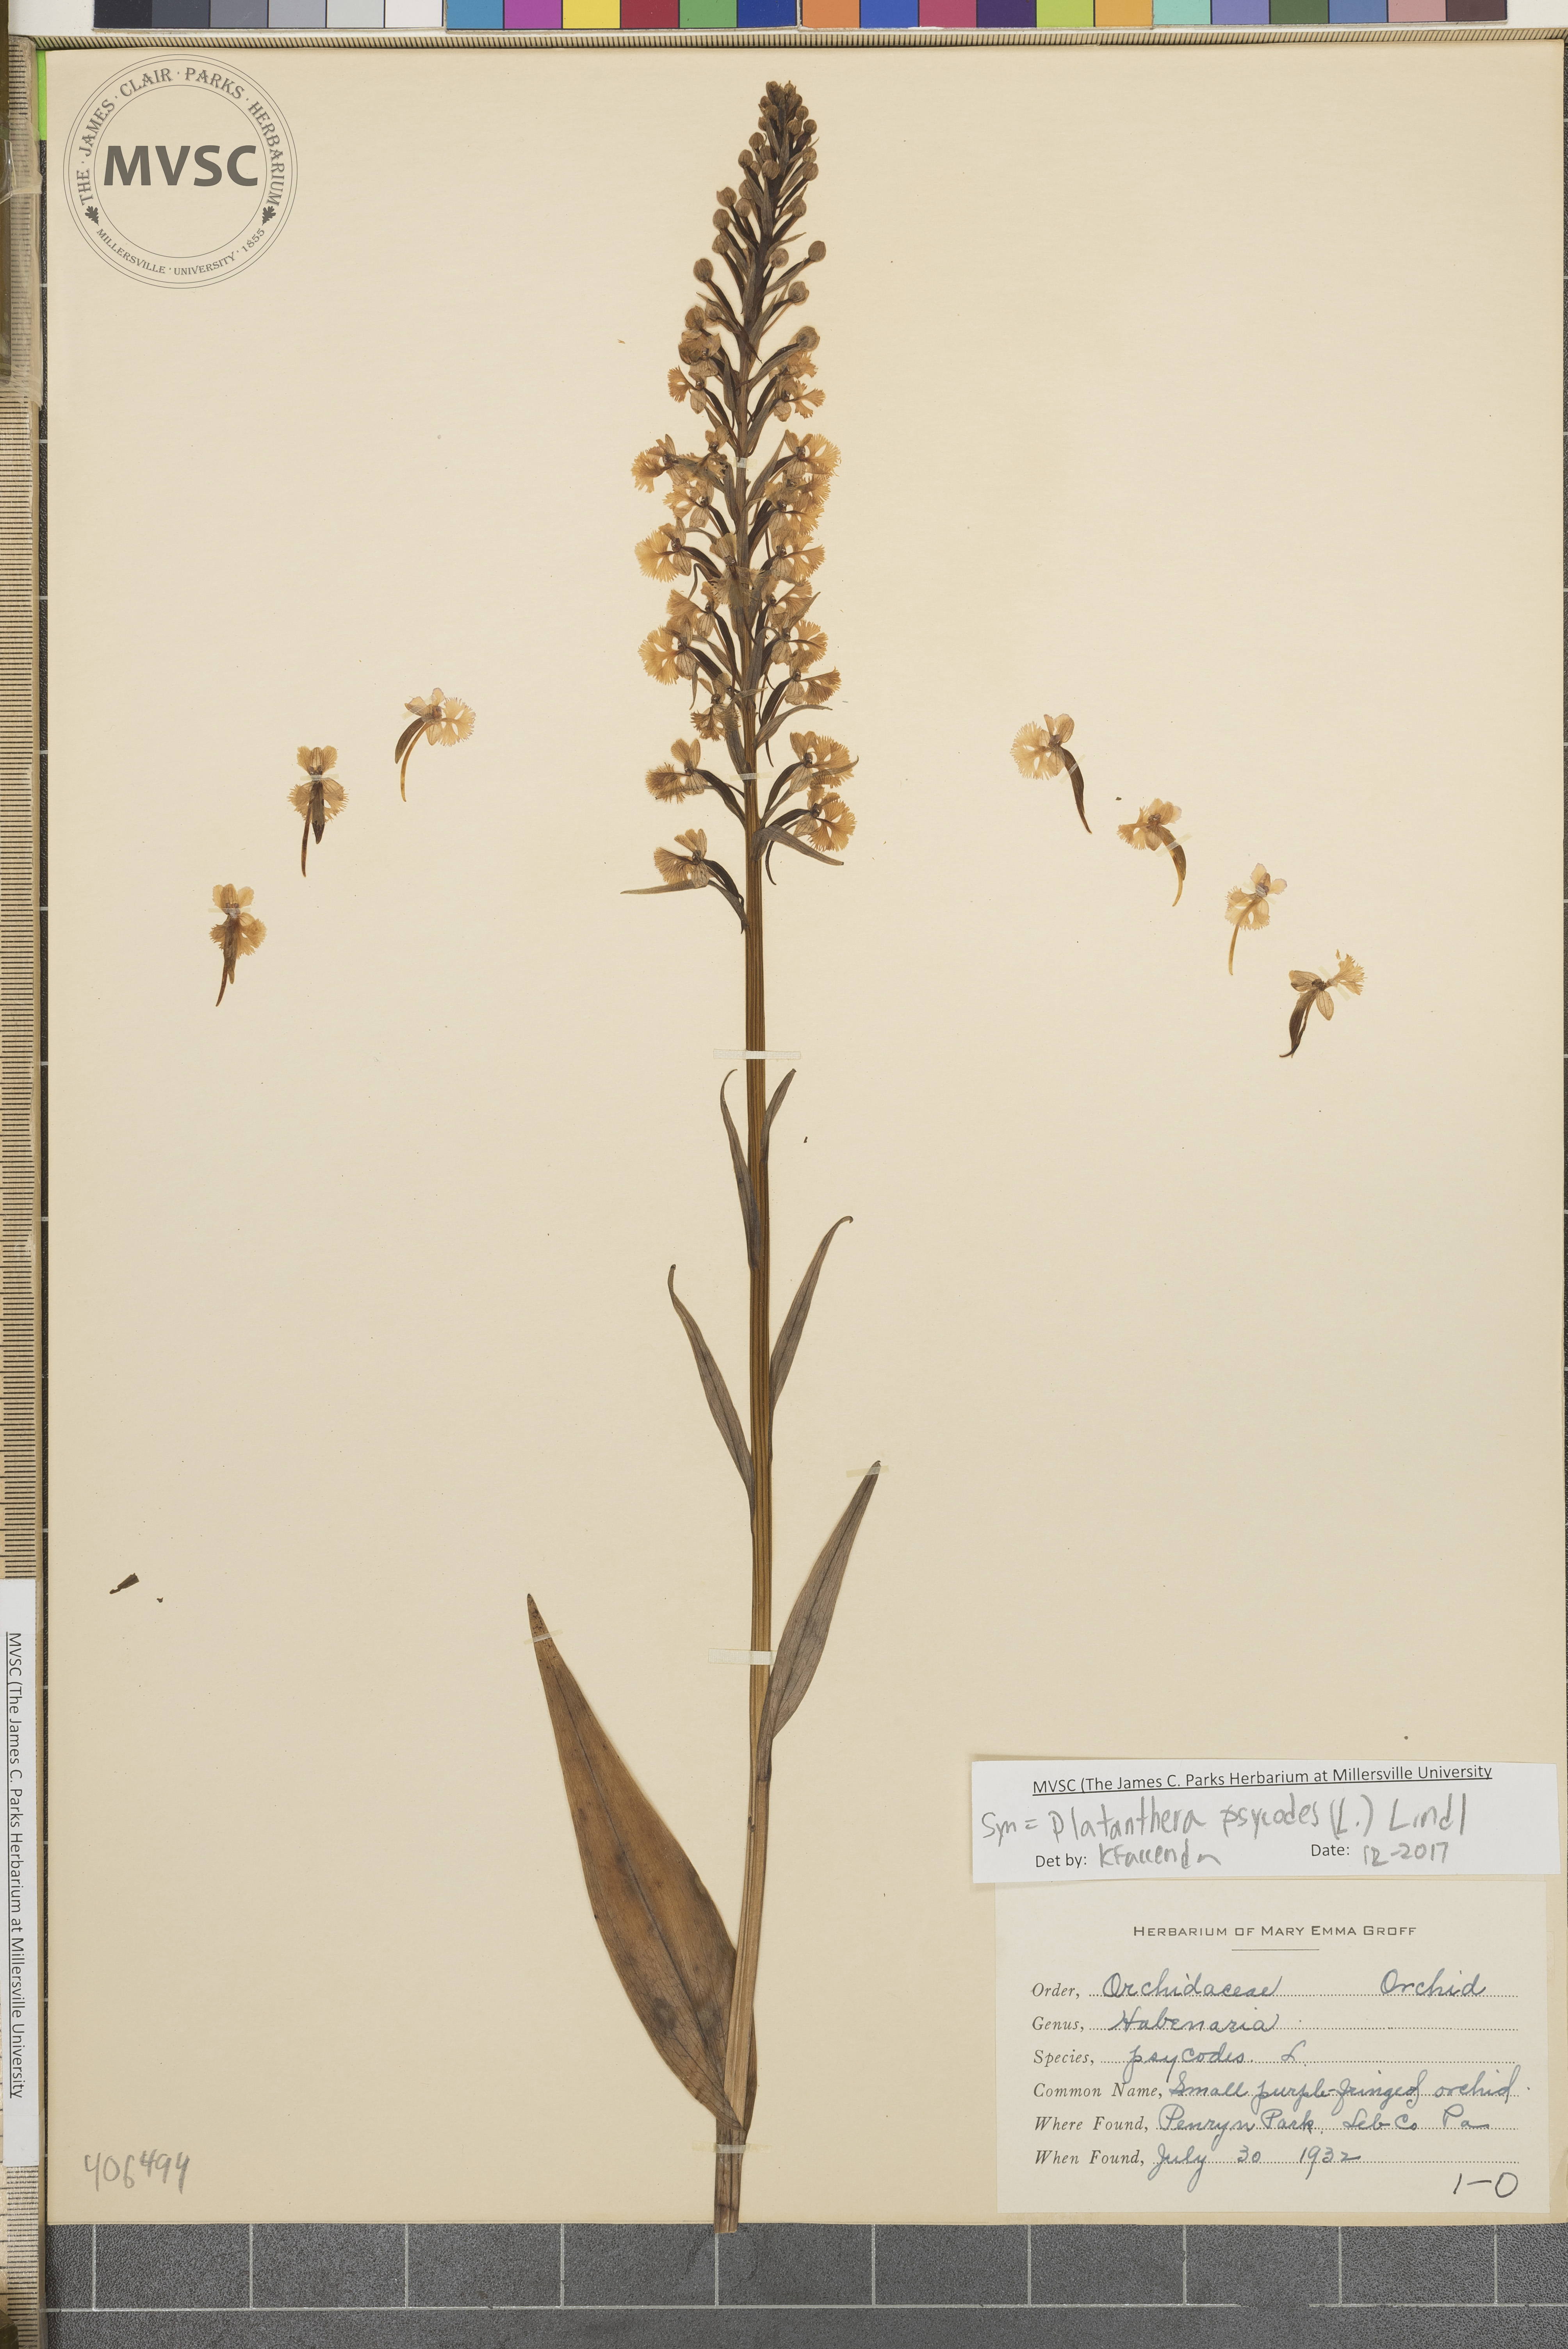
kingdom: Plantae
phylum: Tracheophyta
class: Liliopsida
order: Asparagales
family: Orchidaceae
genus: Platanthera
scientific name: Platanthera psycodes
